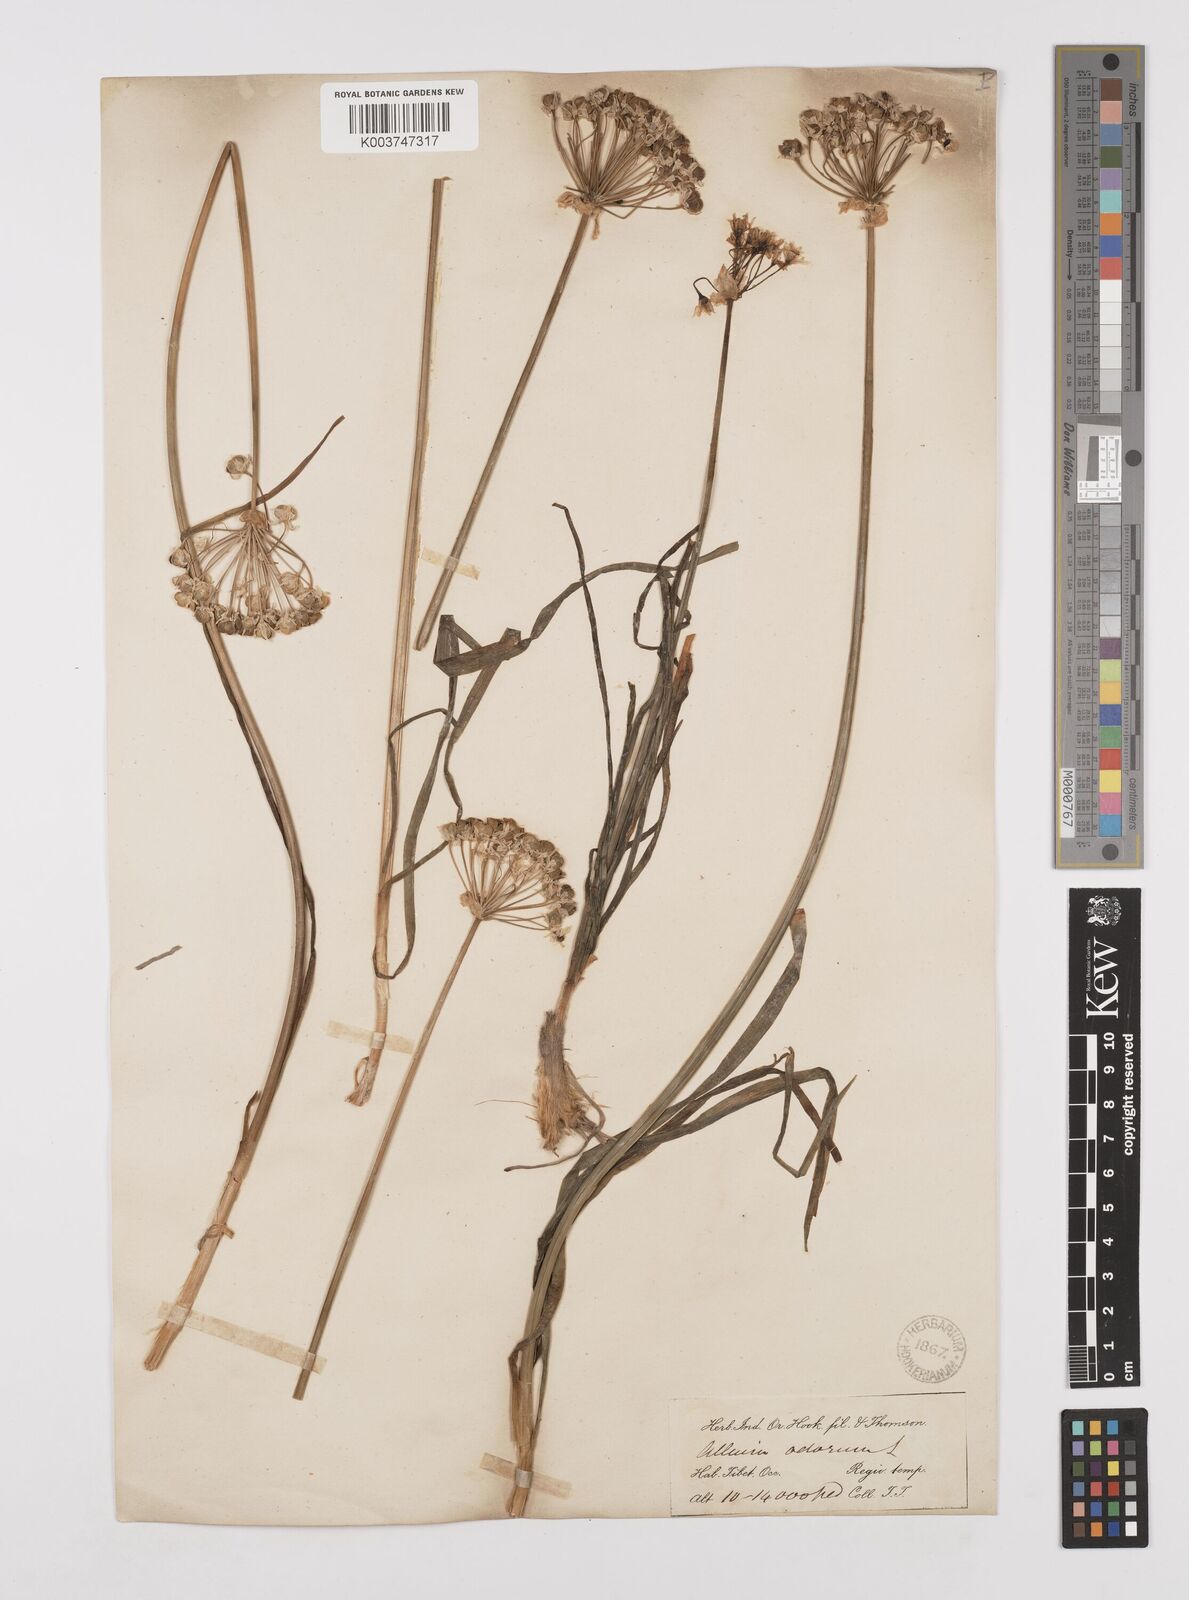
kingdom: Plantae
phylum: Tracheophyta
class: Liliopsida
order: Asparagales
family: Amaryllidaceae
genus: Allium
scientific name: Allium tuberosum
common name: Chinese chives
